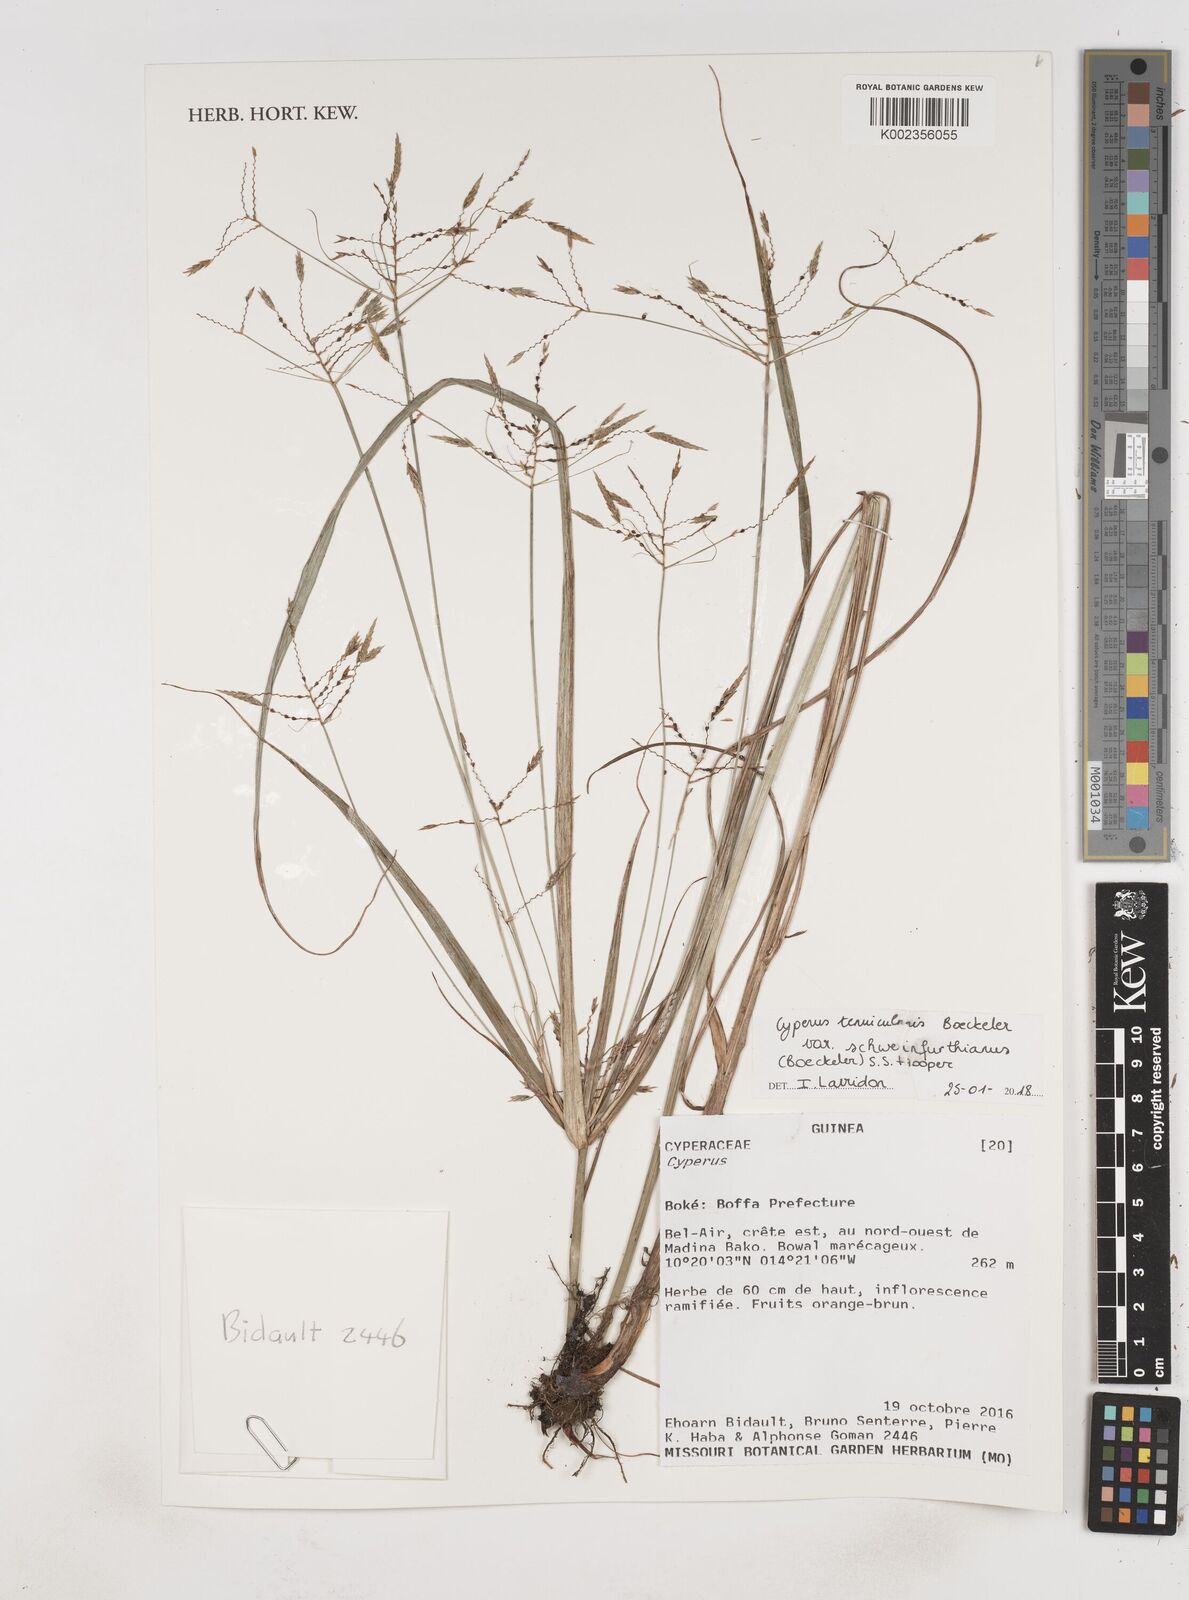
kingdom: Plantae
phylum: Tracheophyta
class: Liliopsida
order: Poales
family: Cyperaceae
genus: Cyperus
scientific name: Cyperus tenuiculmis
